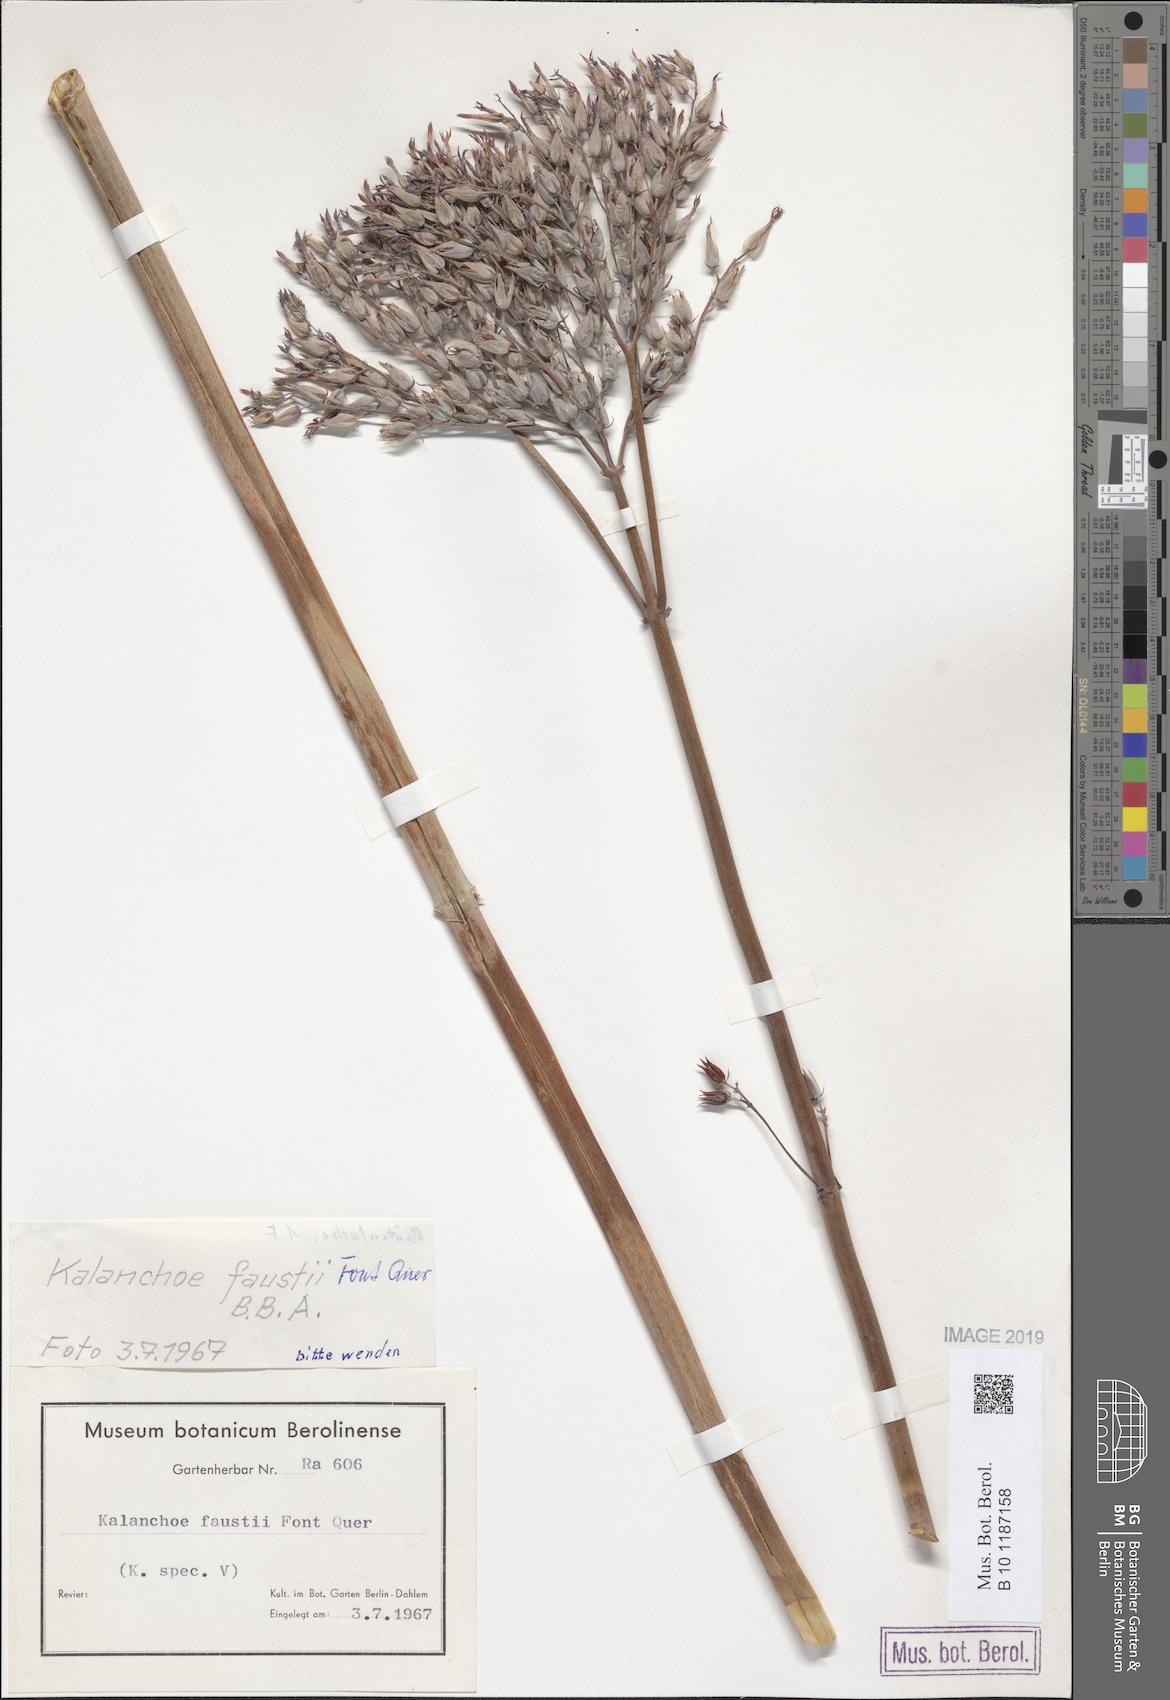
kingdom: Plantae
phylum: Tracheophyta
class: Magnoliopsida
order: Saxifragales
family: Crassulaceae
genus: Kalanchoe
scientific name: Kalanchoe faustii
